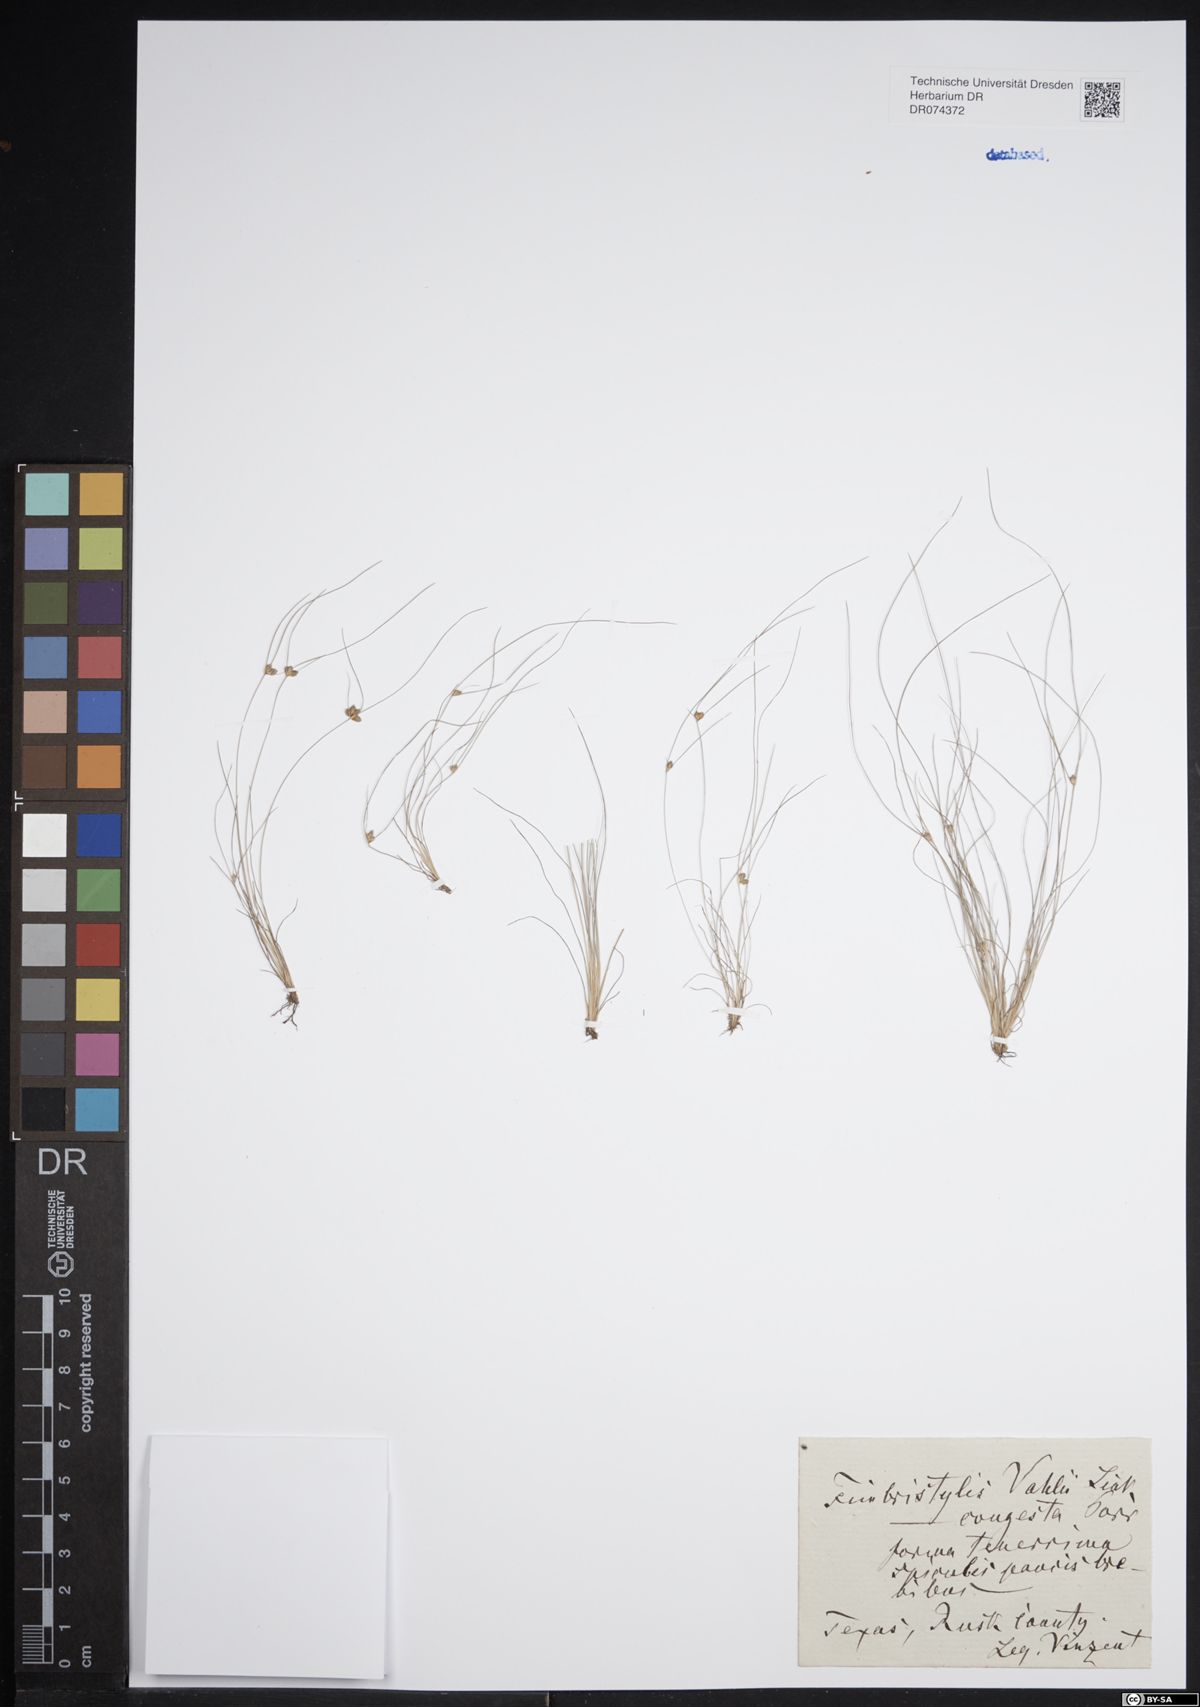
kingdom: Plantae
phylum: Tracheophyta
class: Liliopsida
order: Poales
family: Cyperaceae
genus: Fimbristylis
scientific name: Fimbristylis
